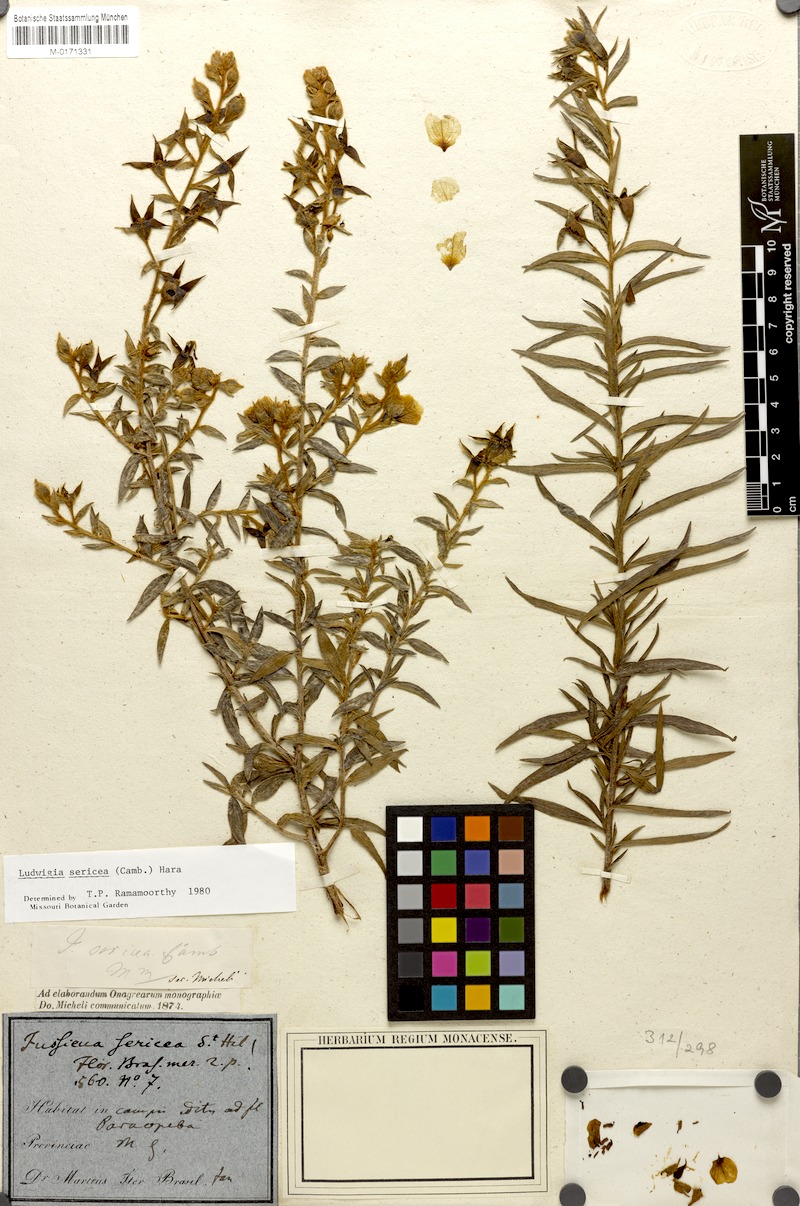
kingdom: Plantae
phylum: Tracheophyta
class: Magnoliopsida
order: Myrtales
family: Onagraceae
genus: Ludwigia
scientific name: Ludwigia sericea
